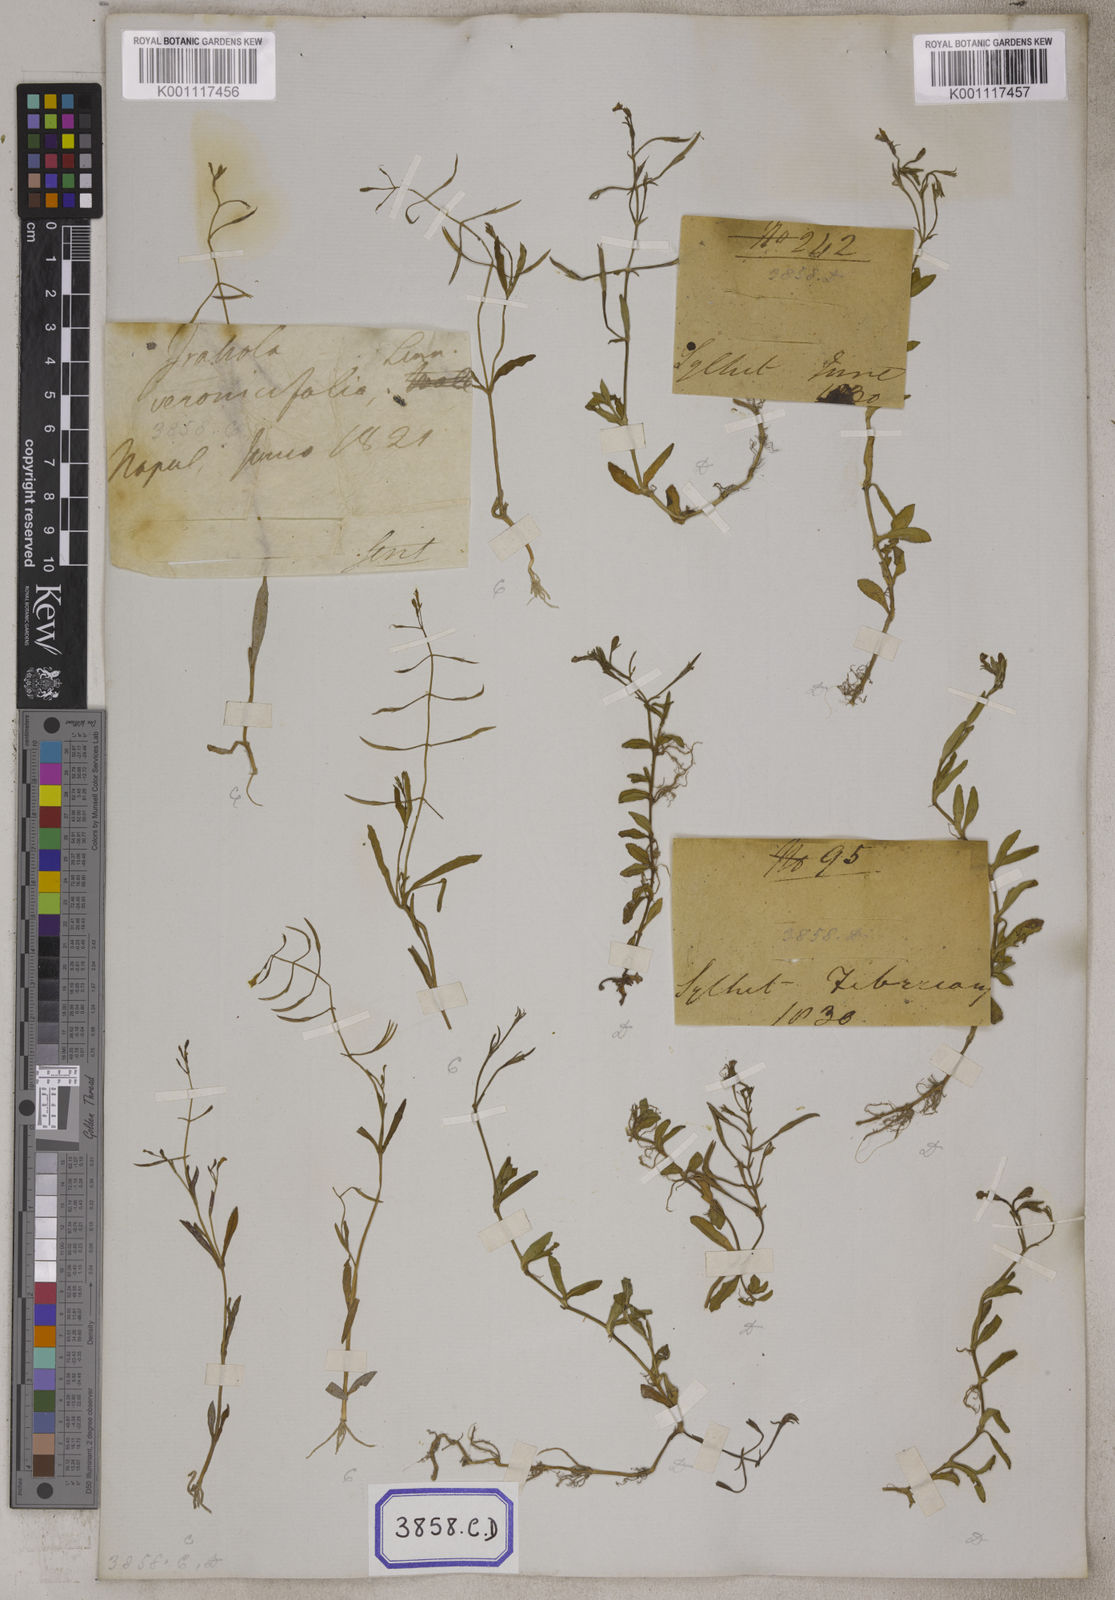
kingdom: Plantae
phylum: Tracheophyta
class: Magnoliopsida
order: Lamiales
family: Linderniaceae
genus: Bonnaya
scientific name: Bonnaya antipoda
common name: Sparrow false pimpernel
